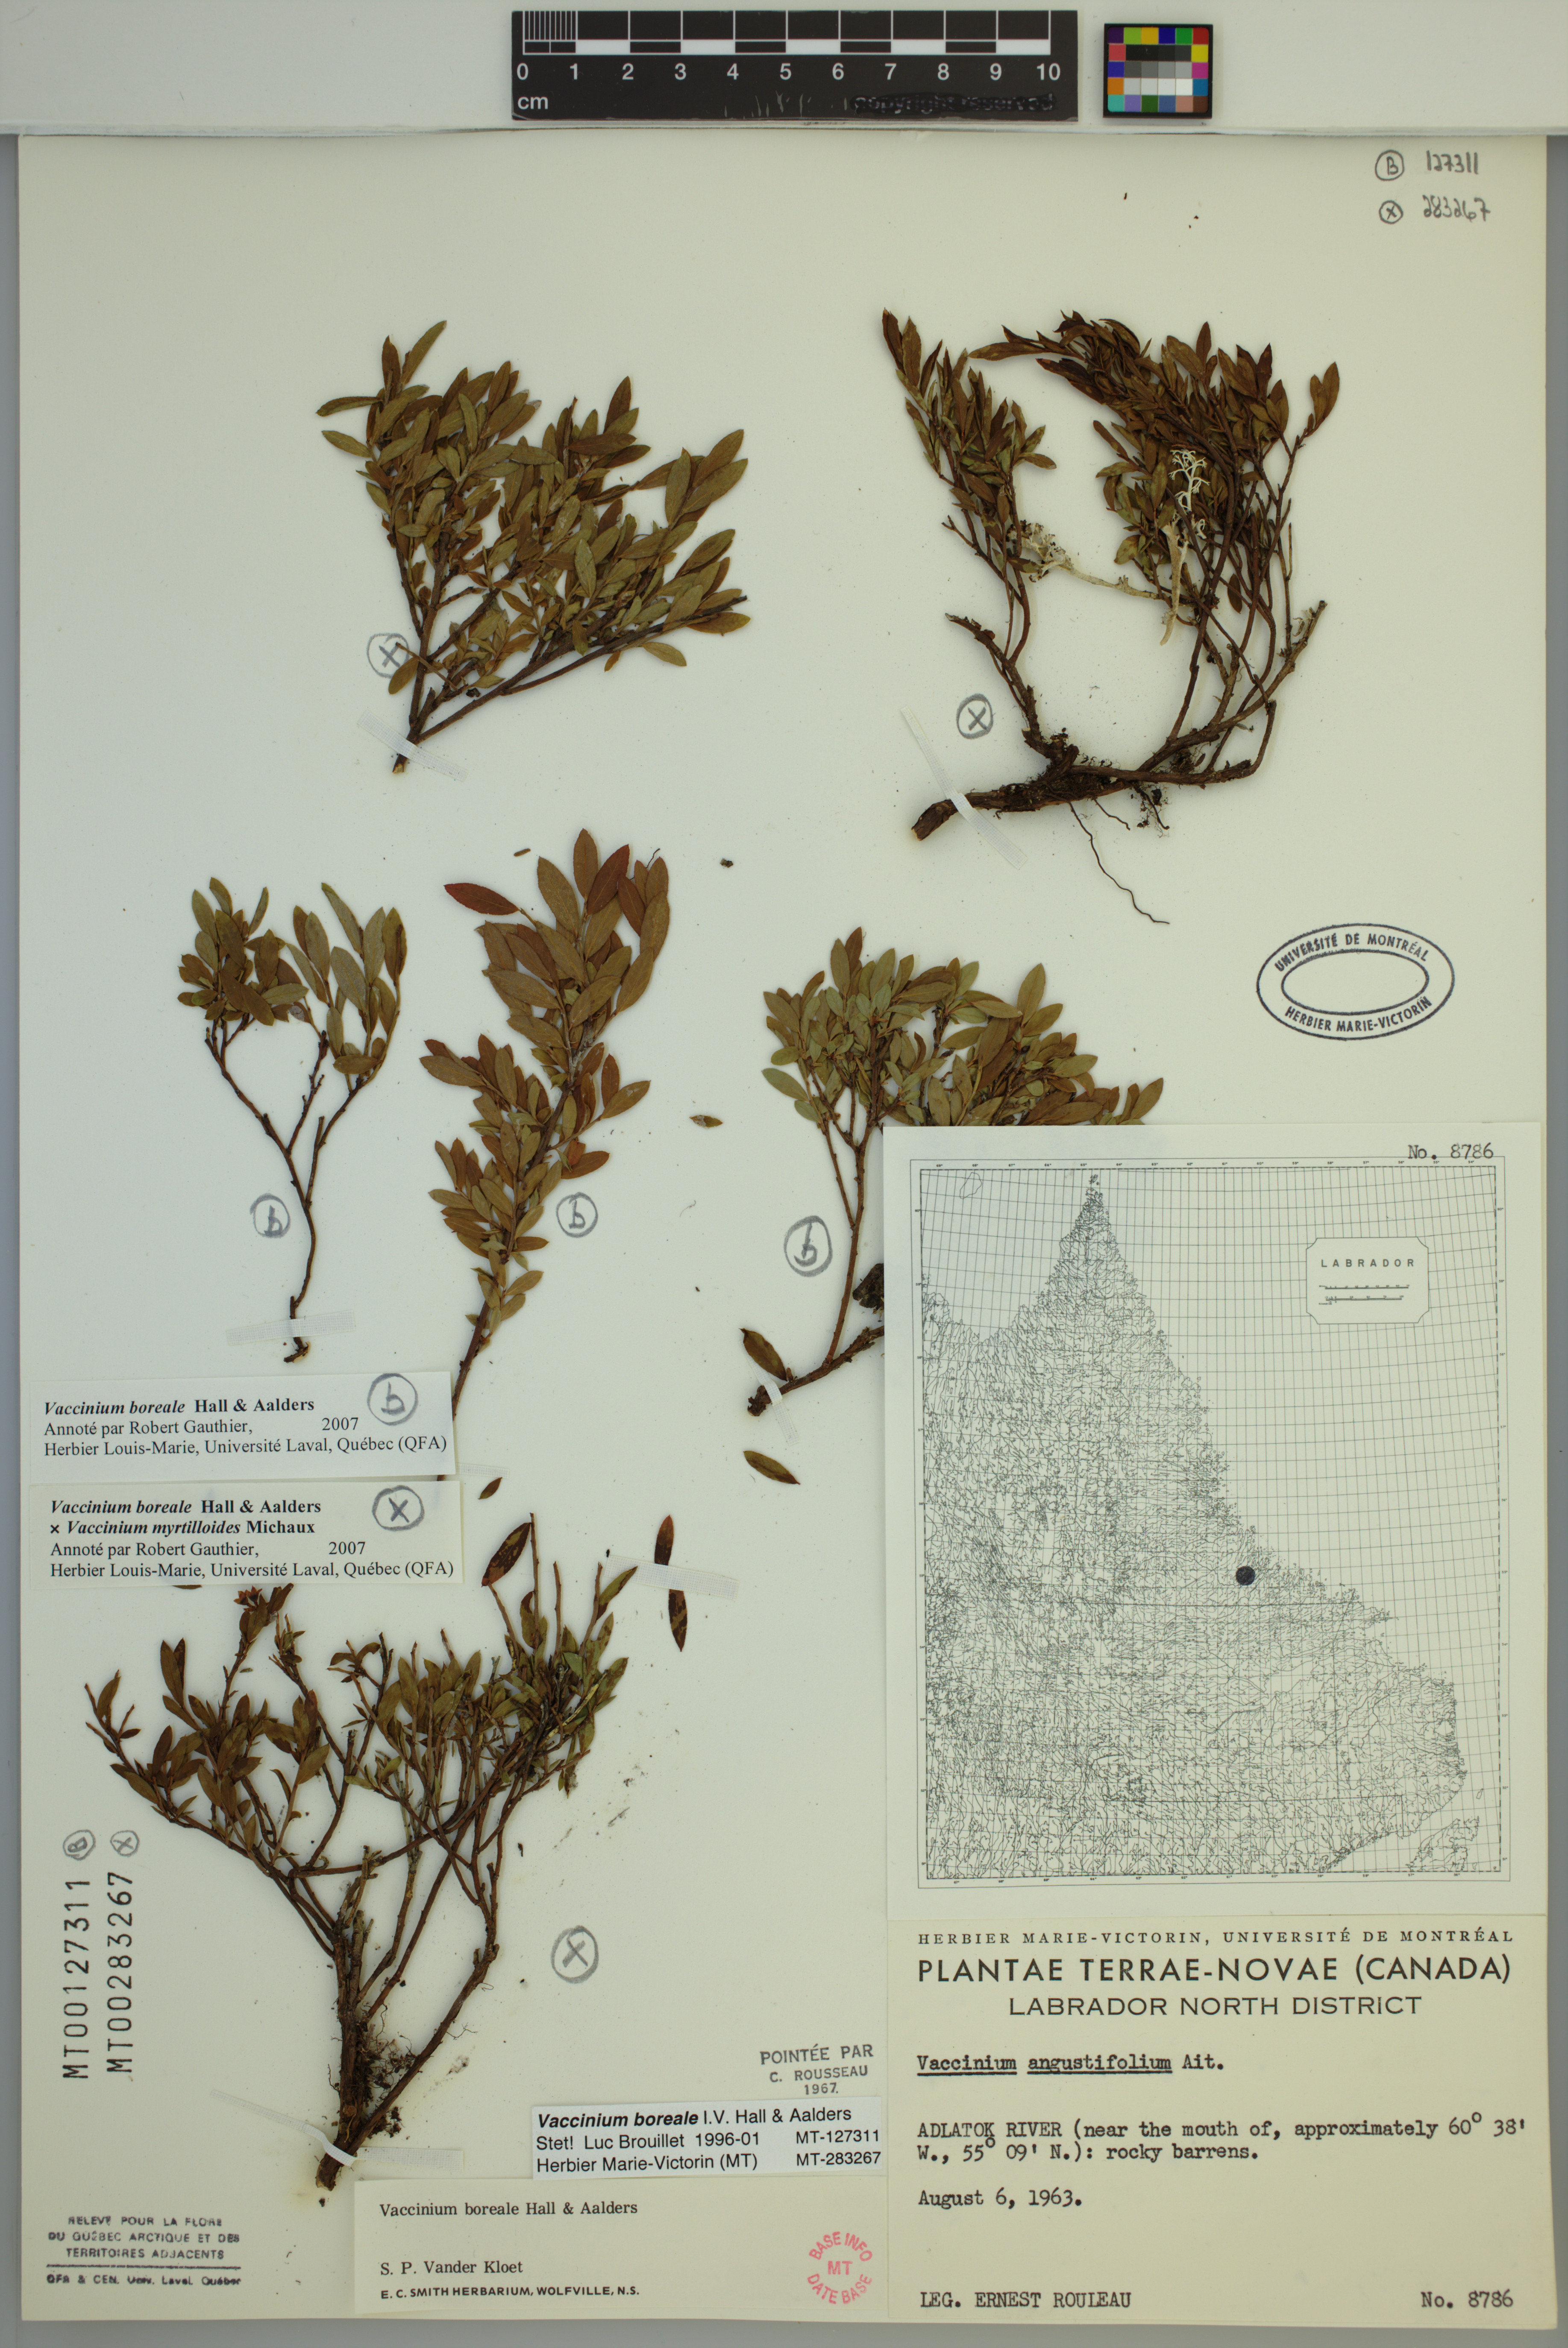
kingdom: Plantae
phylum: Tracheophyta
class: Magnoliopsida
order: Ericales
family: Ericaceae
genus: Vaccinium
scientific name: Vaccinium boreale
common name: Northern blueberry
